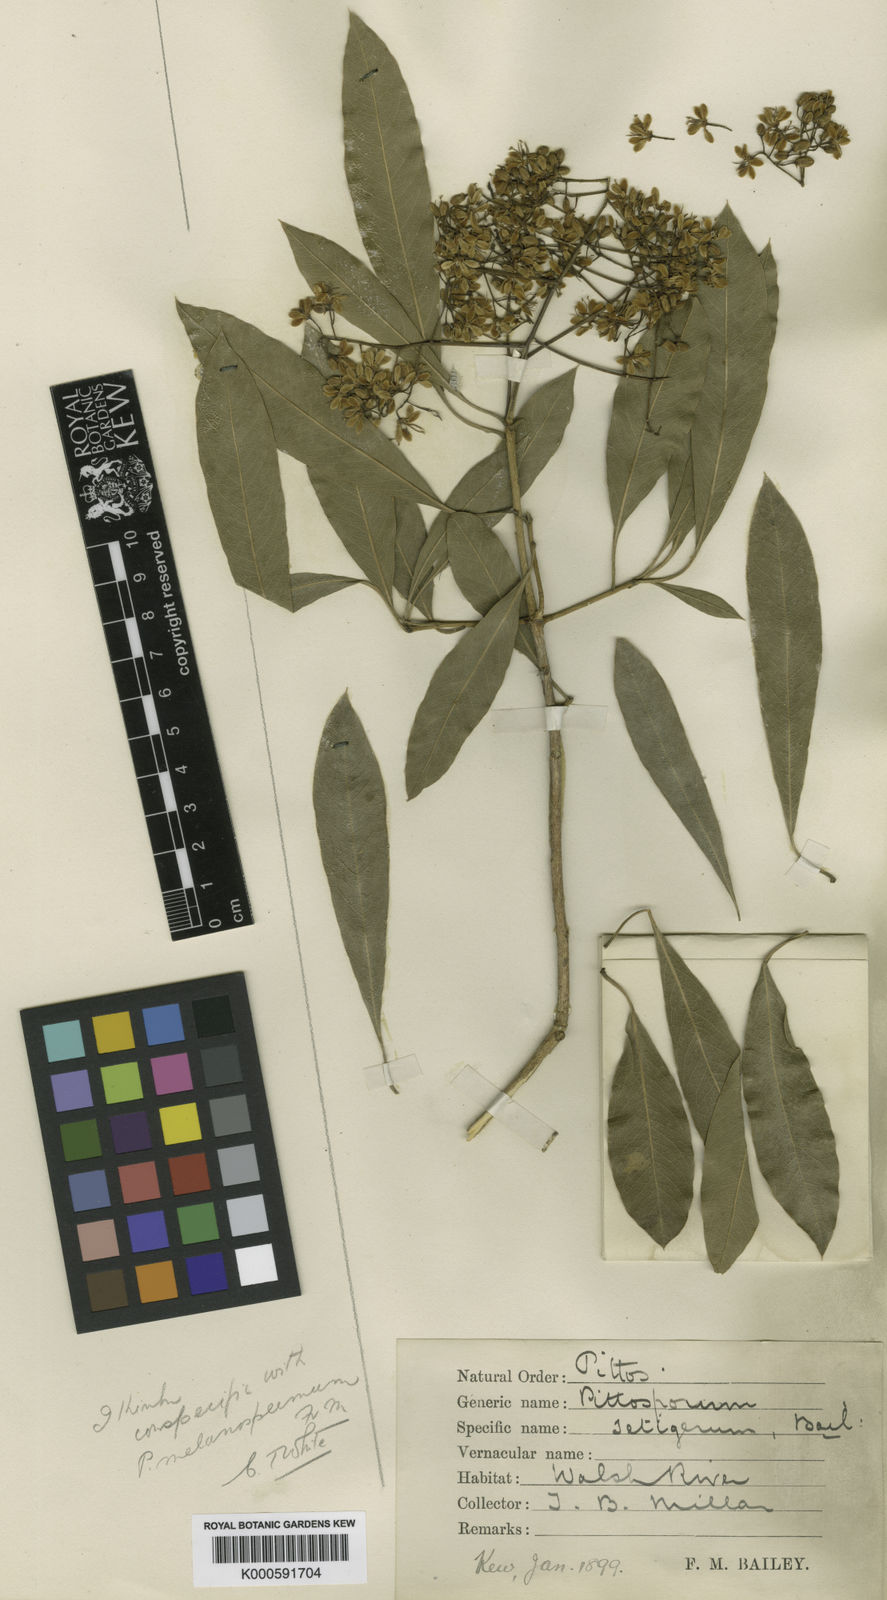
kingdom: Plantae
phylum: Tracheophyta
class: Magnoliopsida
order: Apiales
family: Pittosporaceae
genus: Pittosporum
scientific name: Pittosporum
